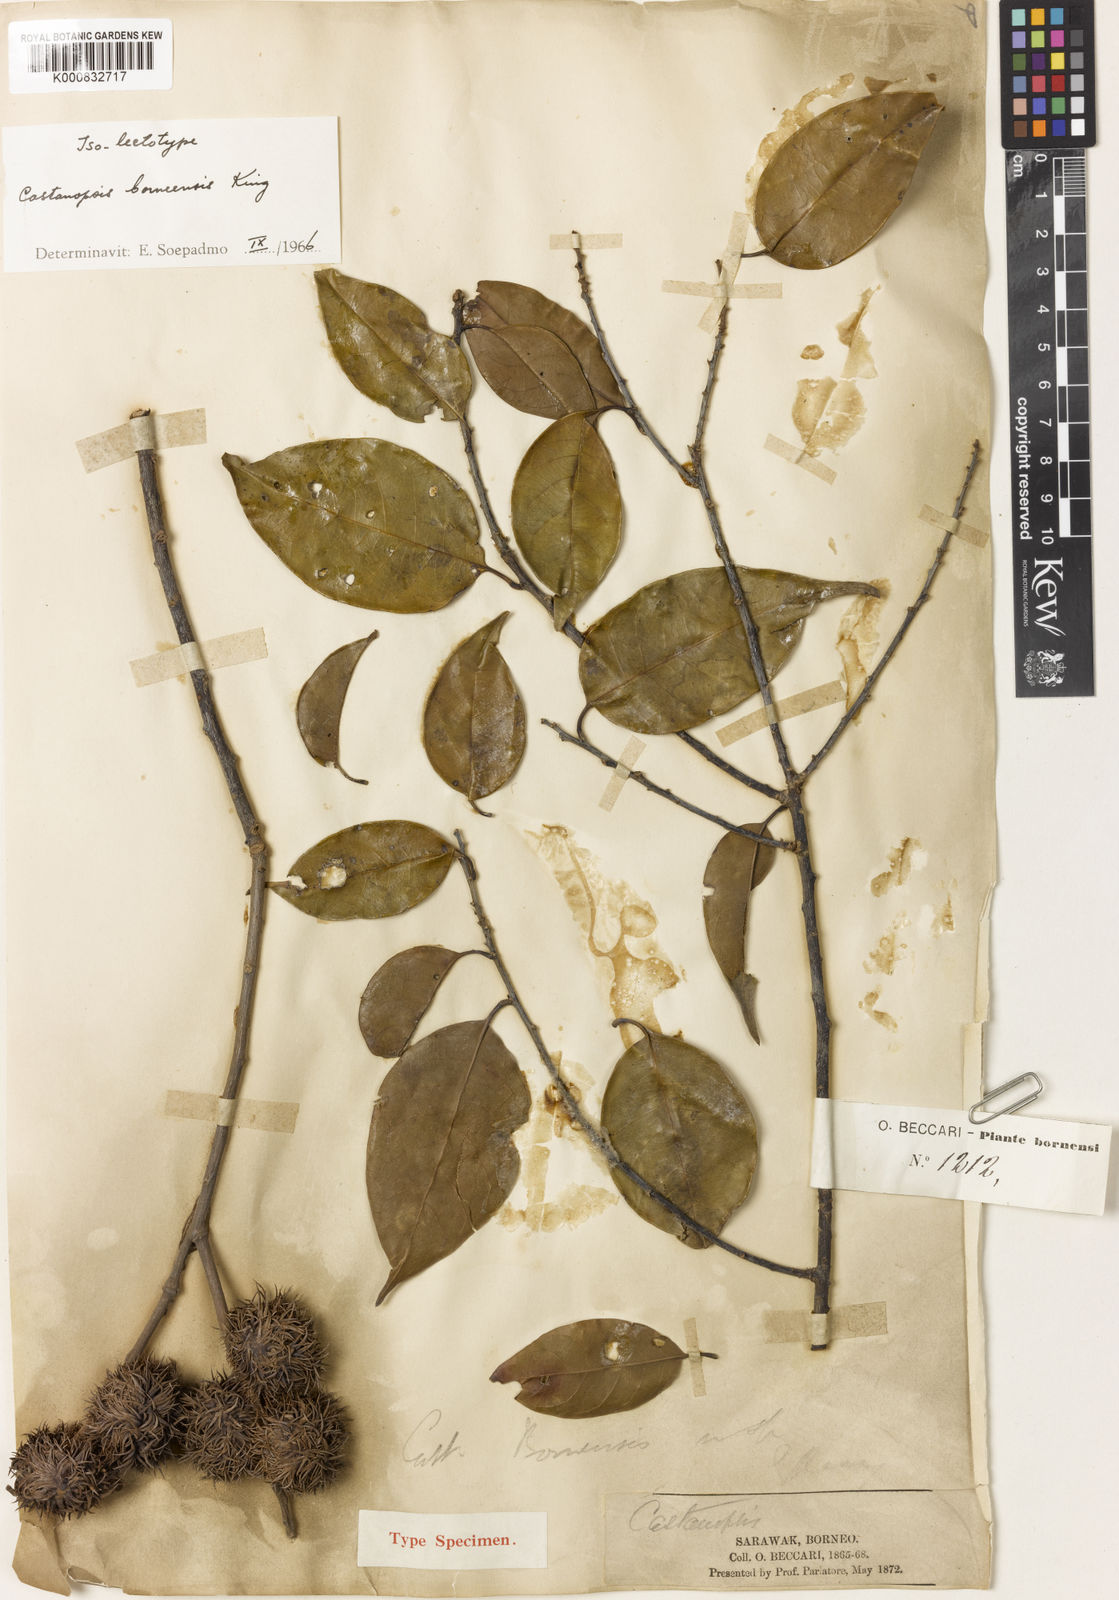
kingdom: Plantae
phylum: Tracheophyta
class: Magnoliopsida
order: Fagales
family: Fagaceae
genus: Castanopsis
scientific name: Castanopsis borneensis
